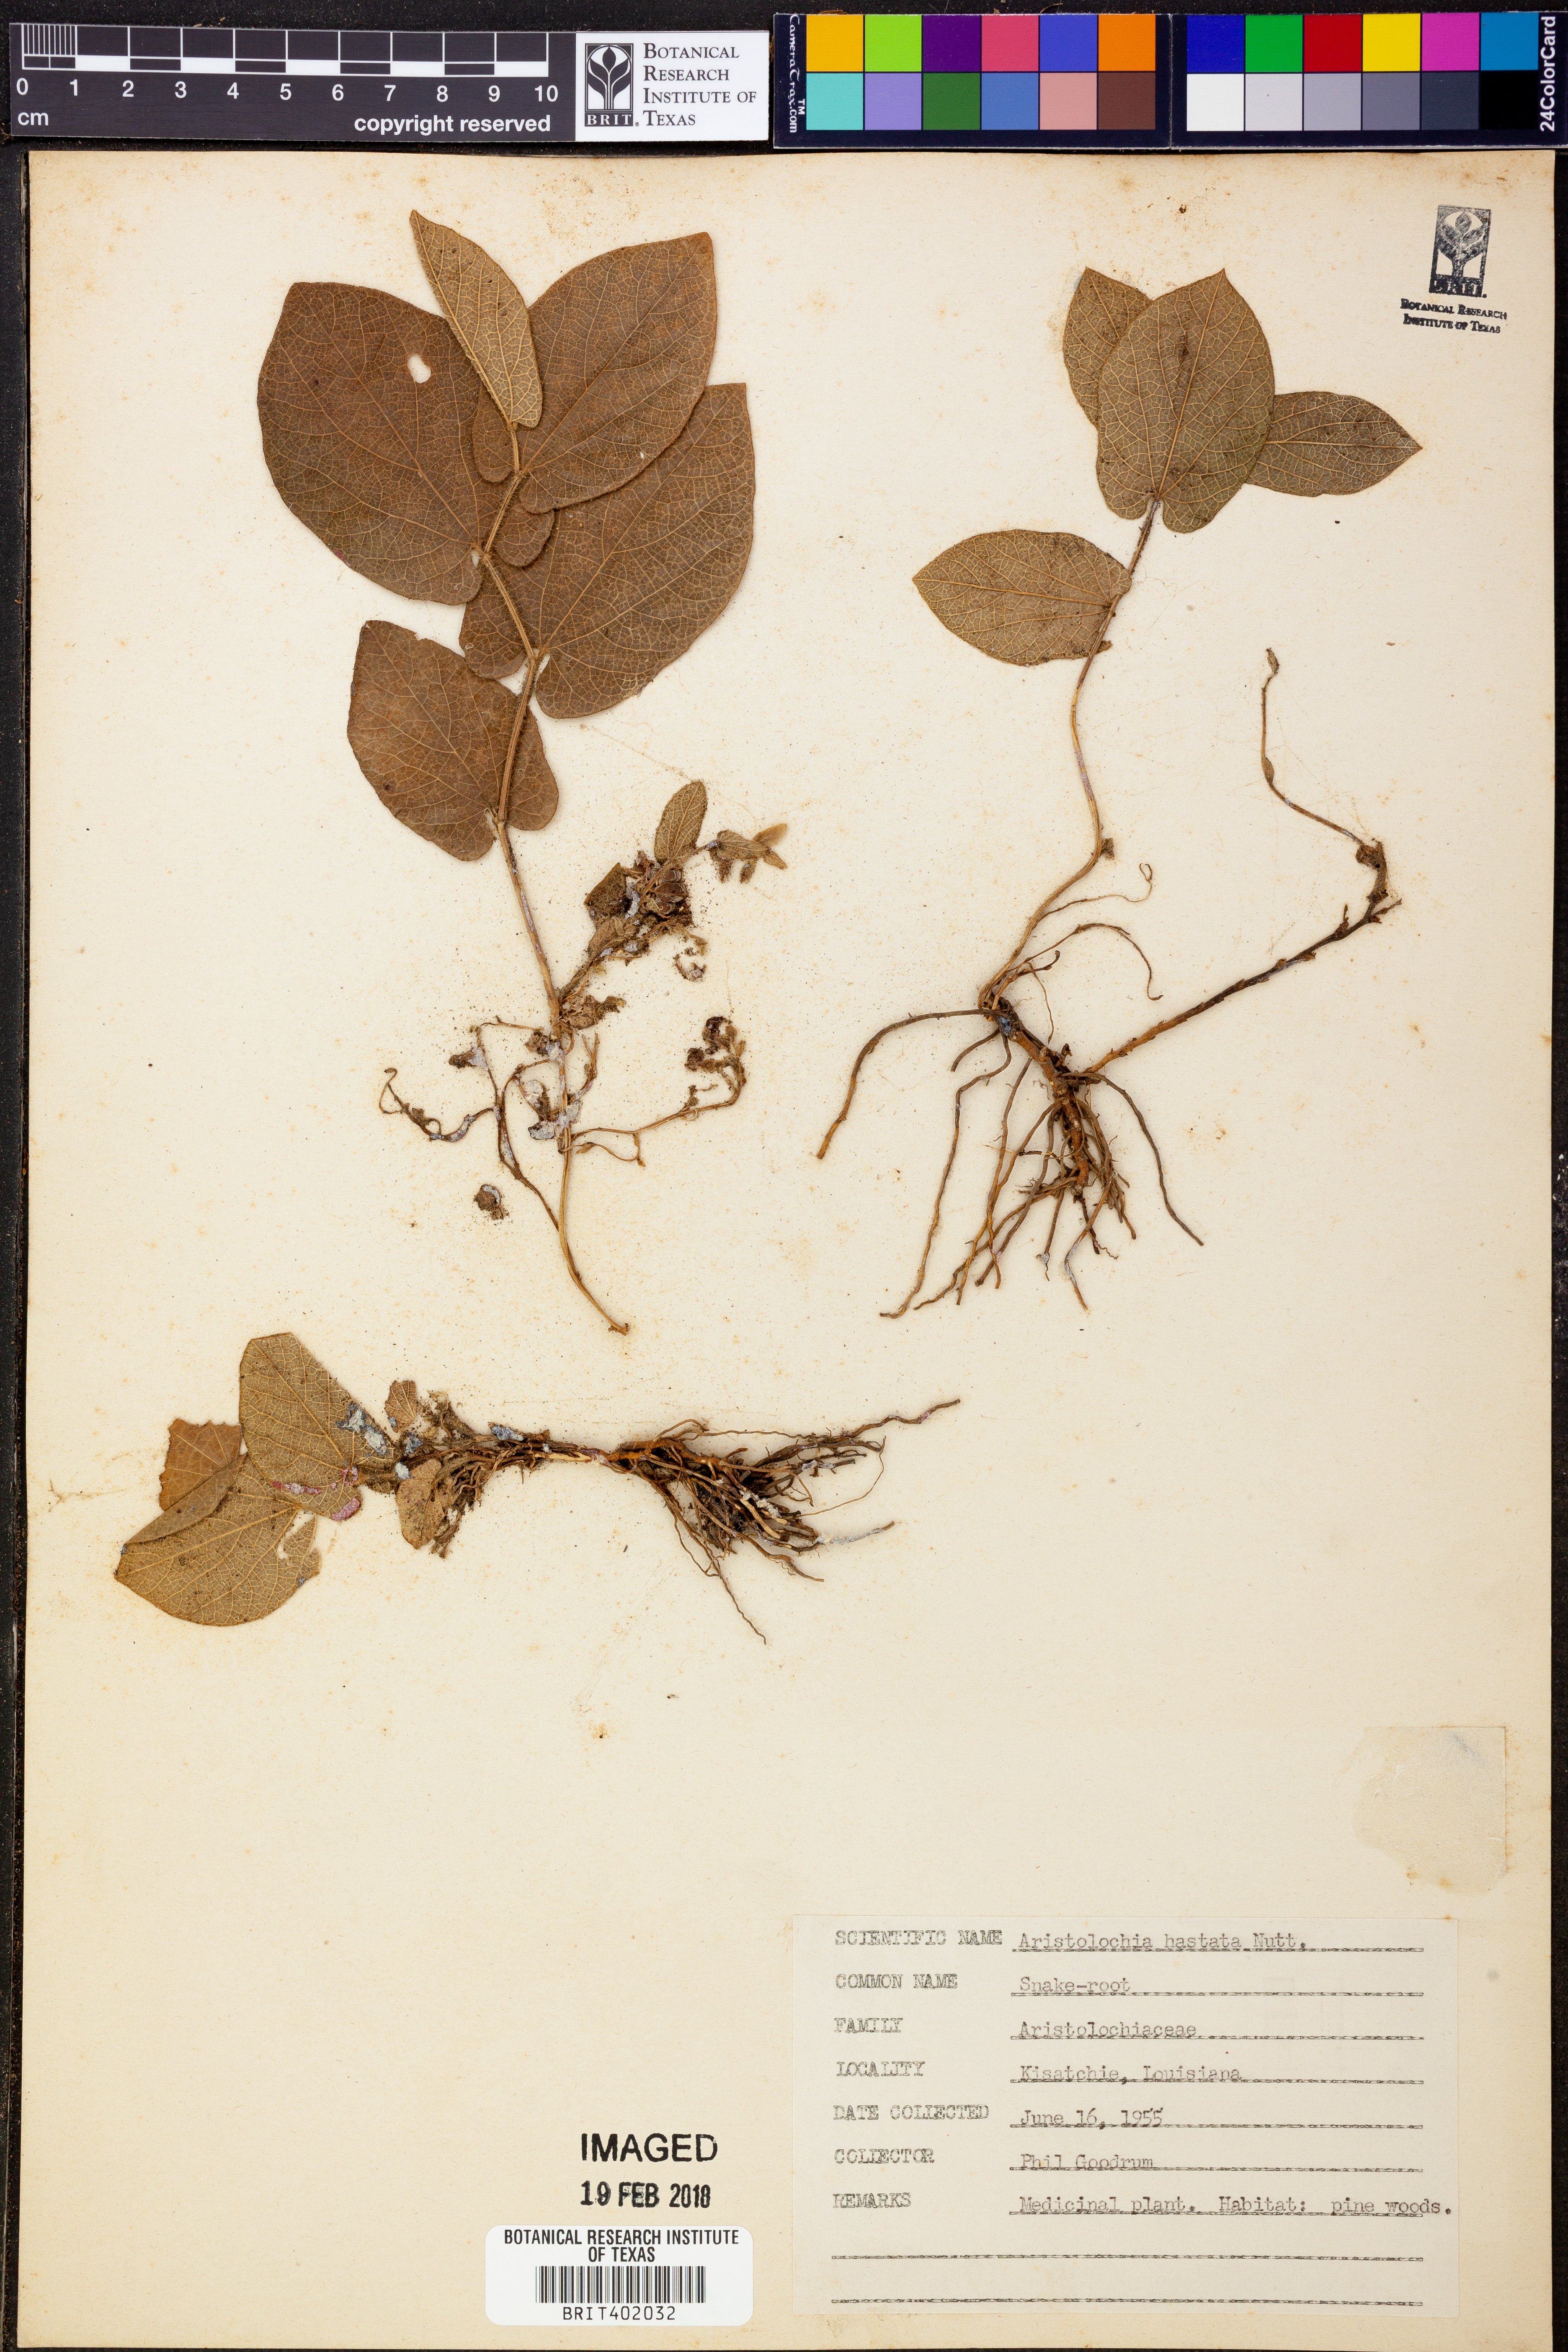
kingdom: Plantae
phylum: Tracheophyta
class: Magnoliopsida
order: Piperales
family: Aristolochiaceae
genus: Endodeca
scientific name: Endodeca serpentaria
